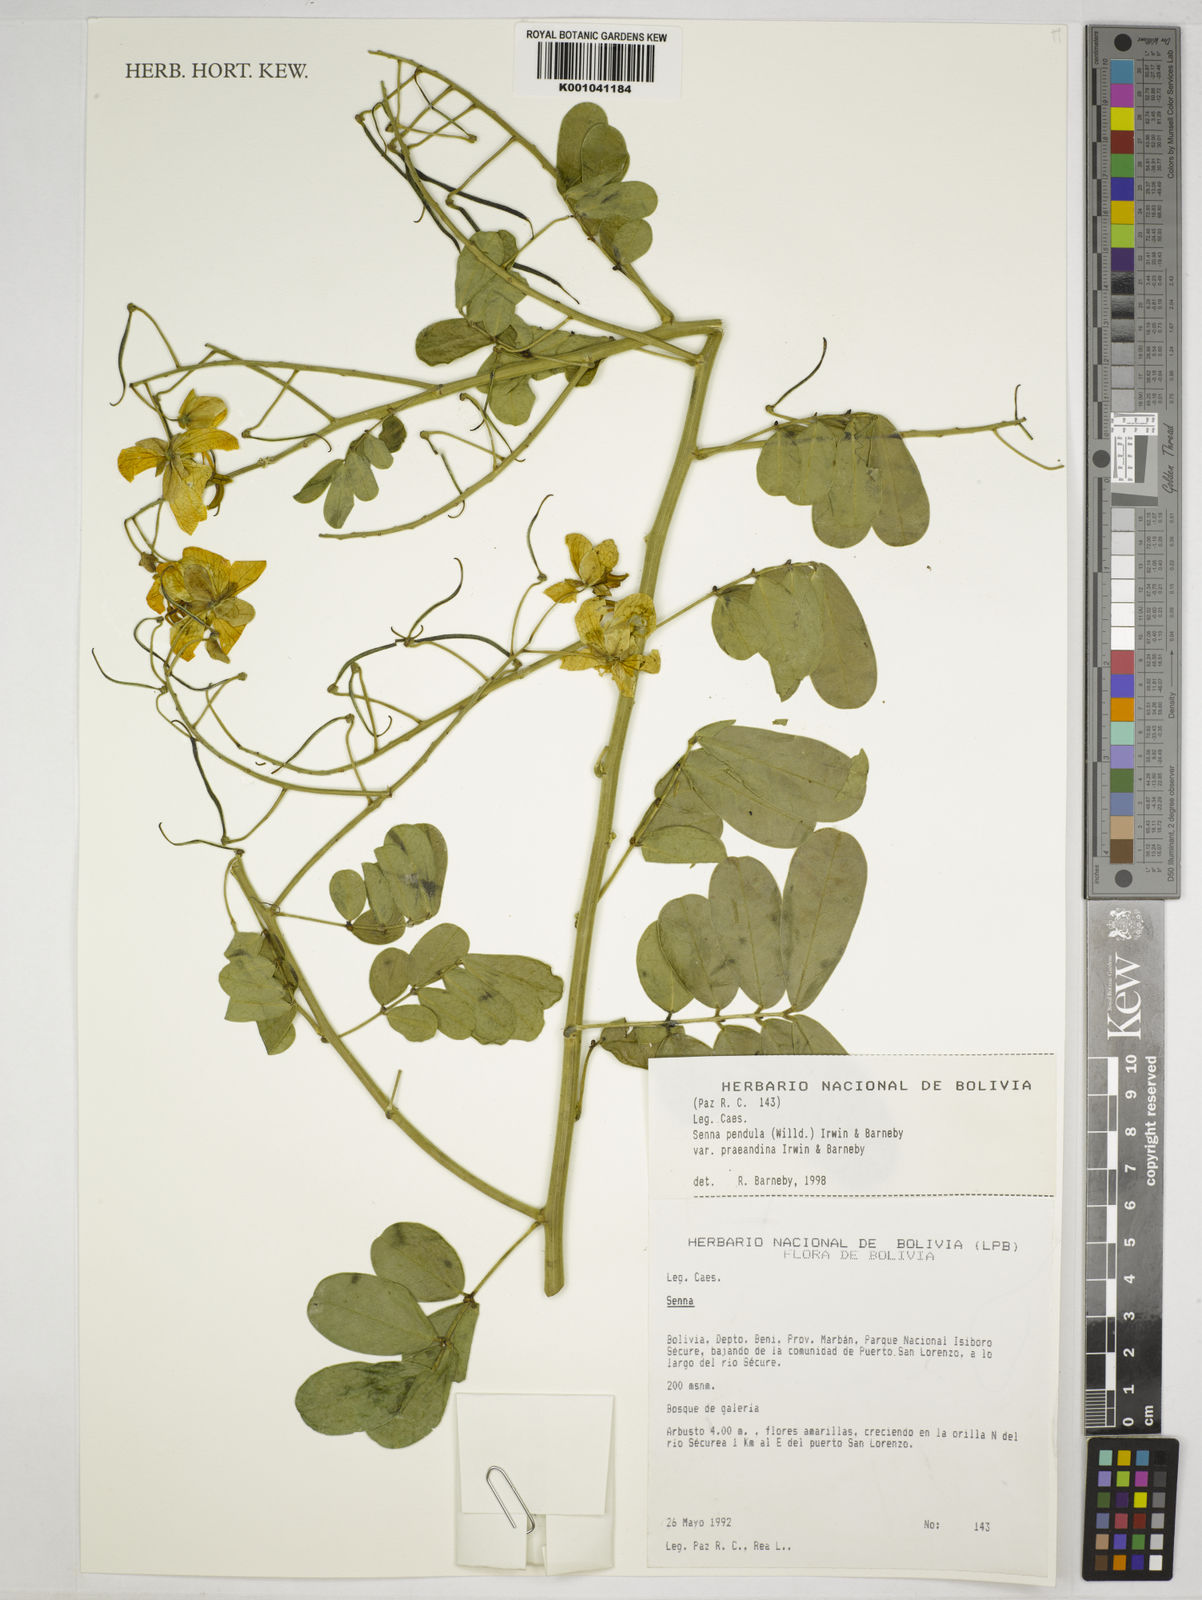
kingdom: Plantae
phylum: Tracheophyta
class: Magnoliopsida
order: Fabales
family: Fabaceae
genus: Senna
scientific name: Senna pendula
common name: Easter cassia
